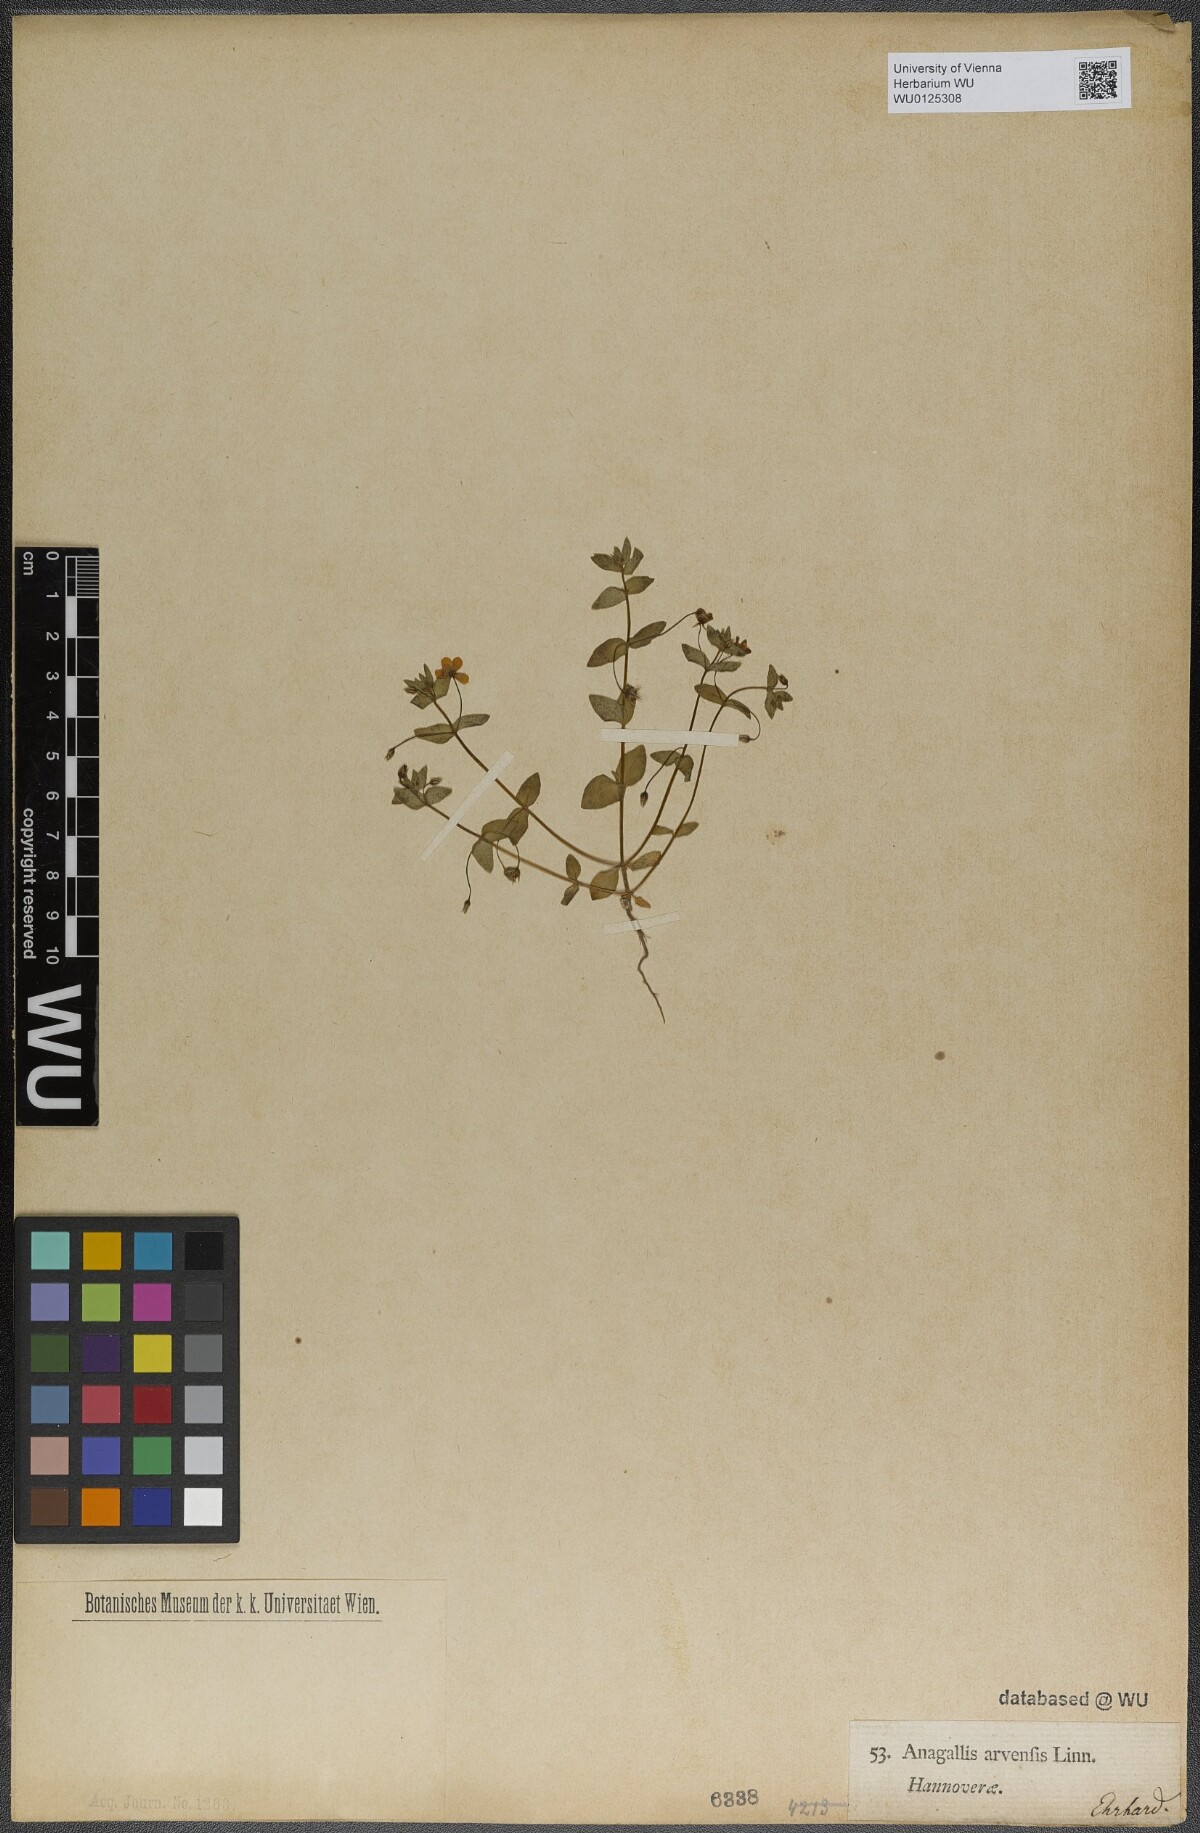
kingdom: Plantae
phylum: Tracheophyta
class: Magnoliopsida
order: Ericales
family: Primulaceae
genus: Lysimachia
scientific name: Lysimachia arvensis
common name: Scarlet pimpernel
